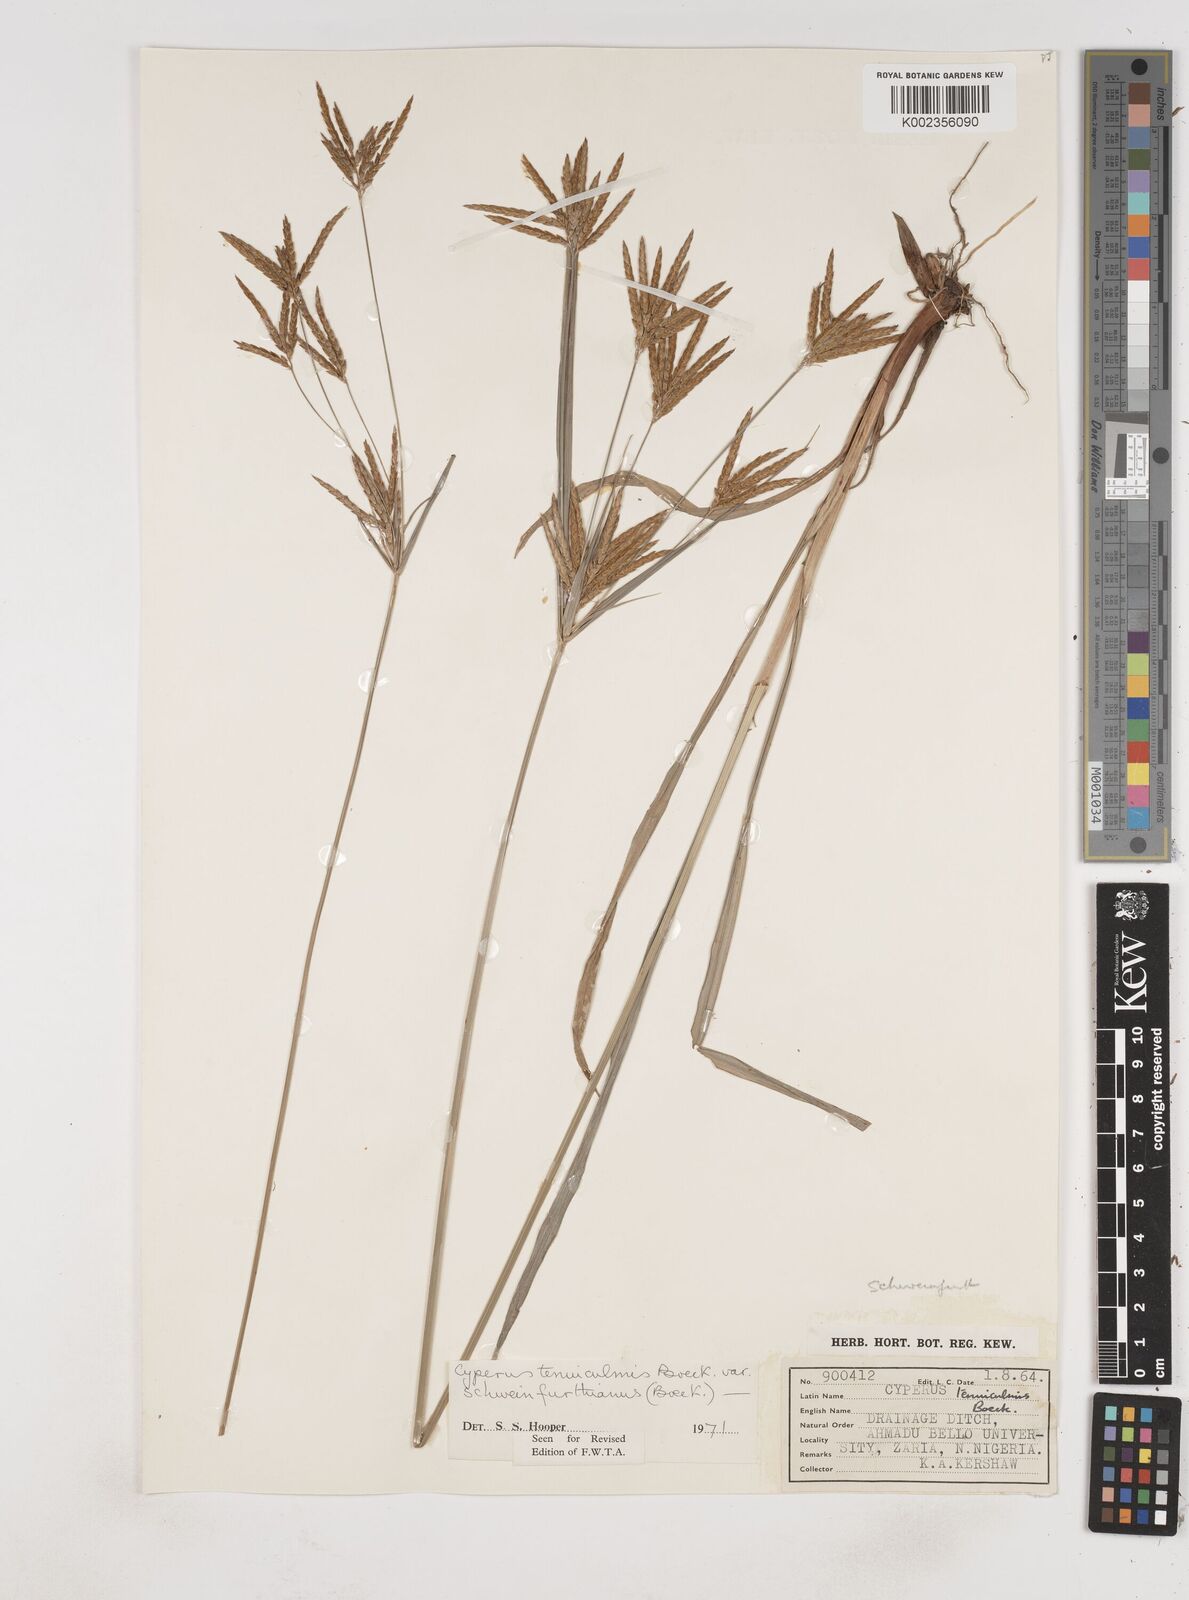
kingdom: Plantae
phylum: Tracheophyta
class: Liliopsida
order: Poales
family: Cyperaceae
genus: Cyperus
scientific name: Cyperus tenuiculmis
